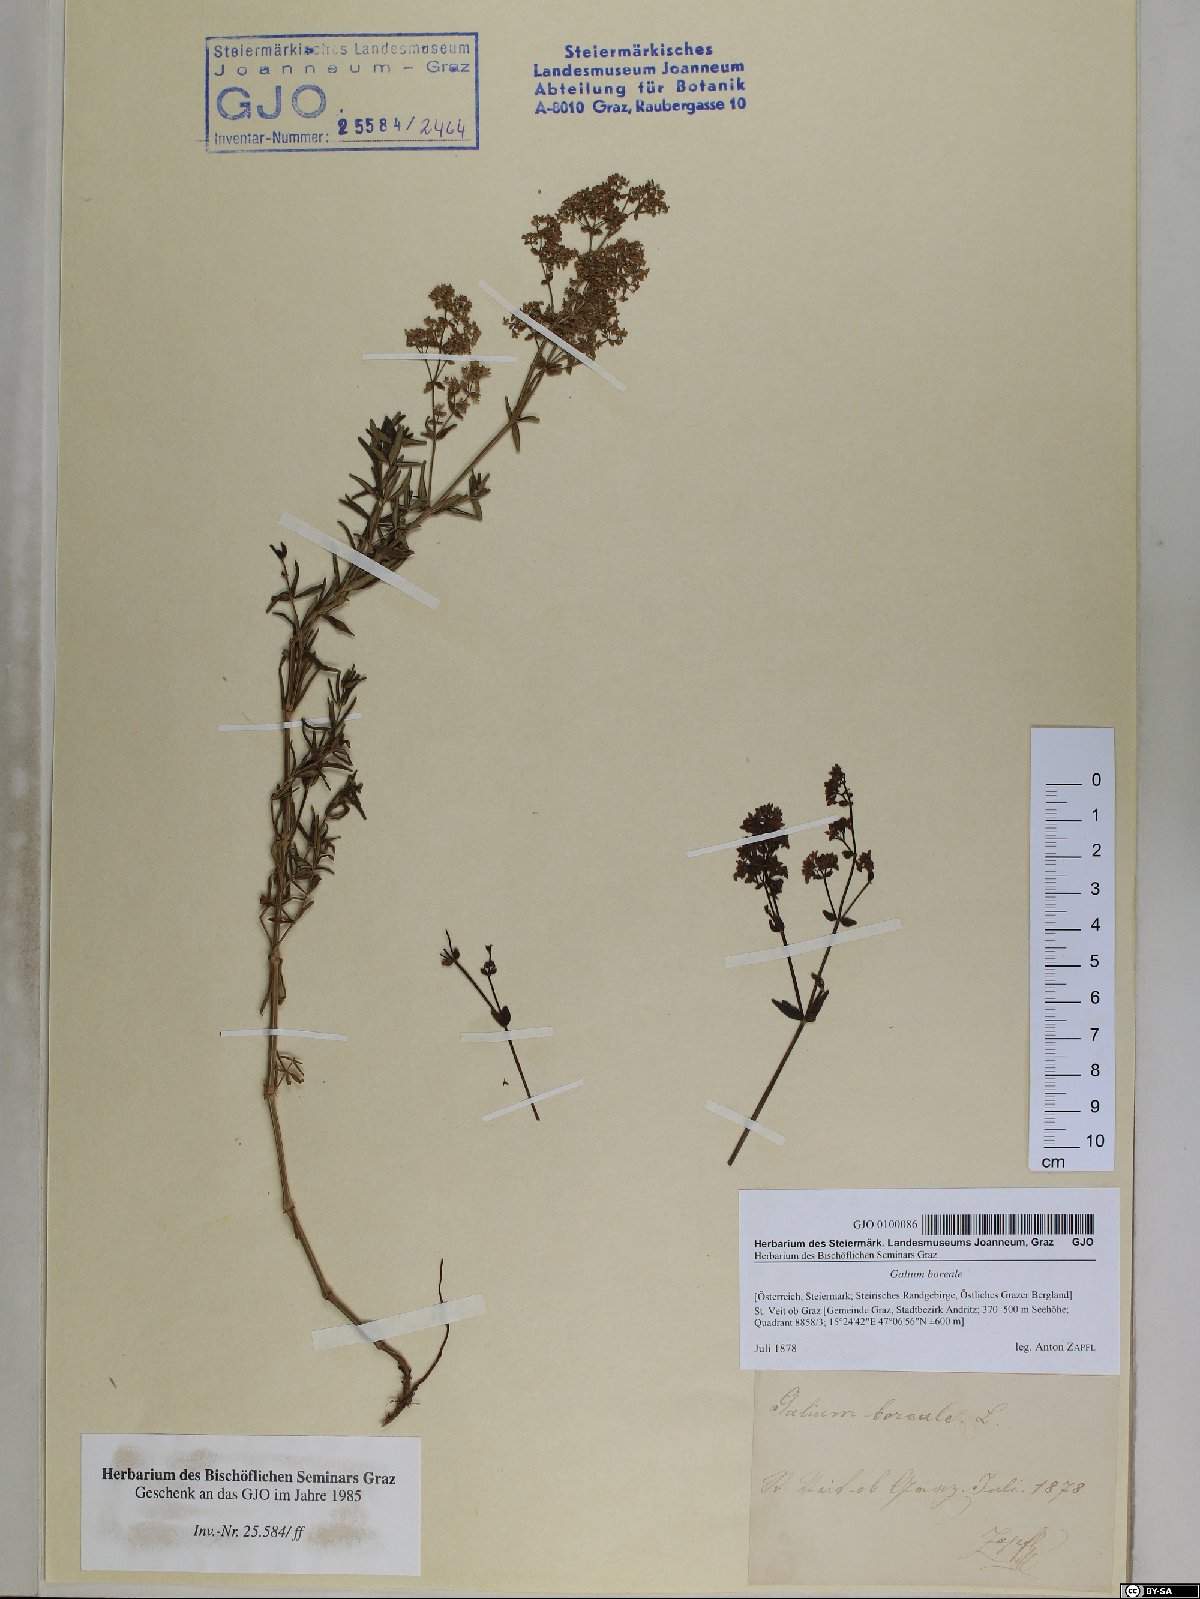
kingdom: Plantae
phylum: Tracheophyta
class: Magnoliopsida
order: Gentianales
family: Rubiaceae
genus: Galium
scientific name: Galium boreale
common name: Northern bedstraw
